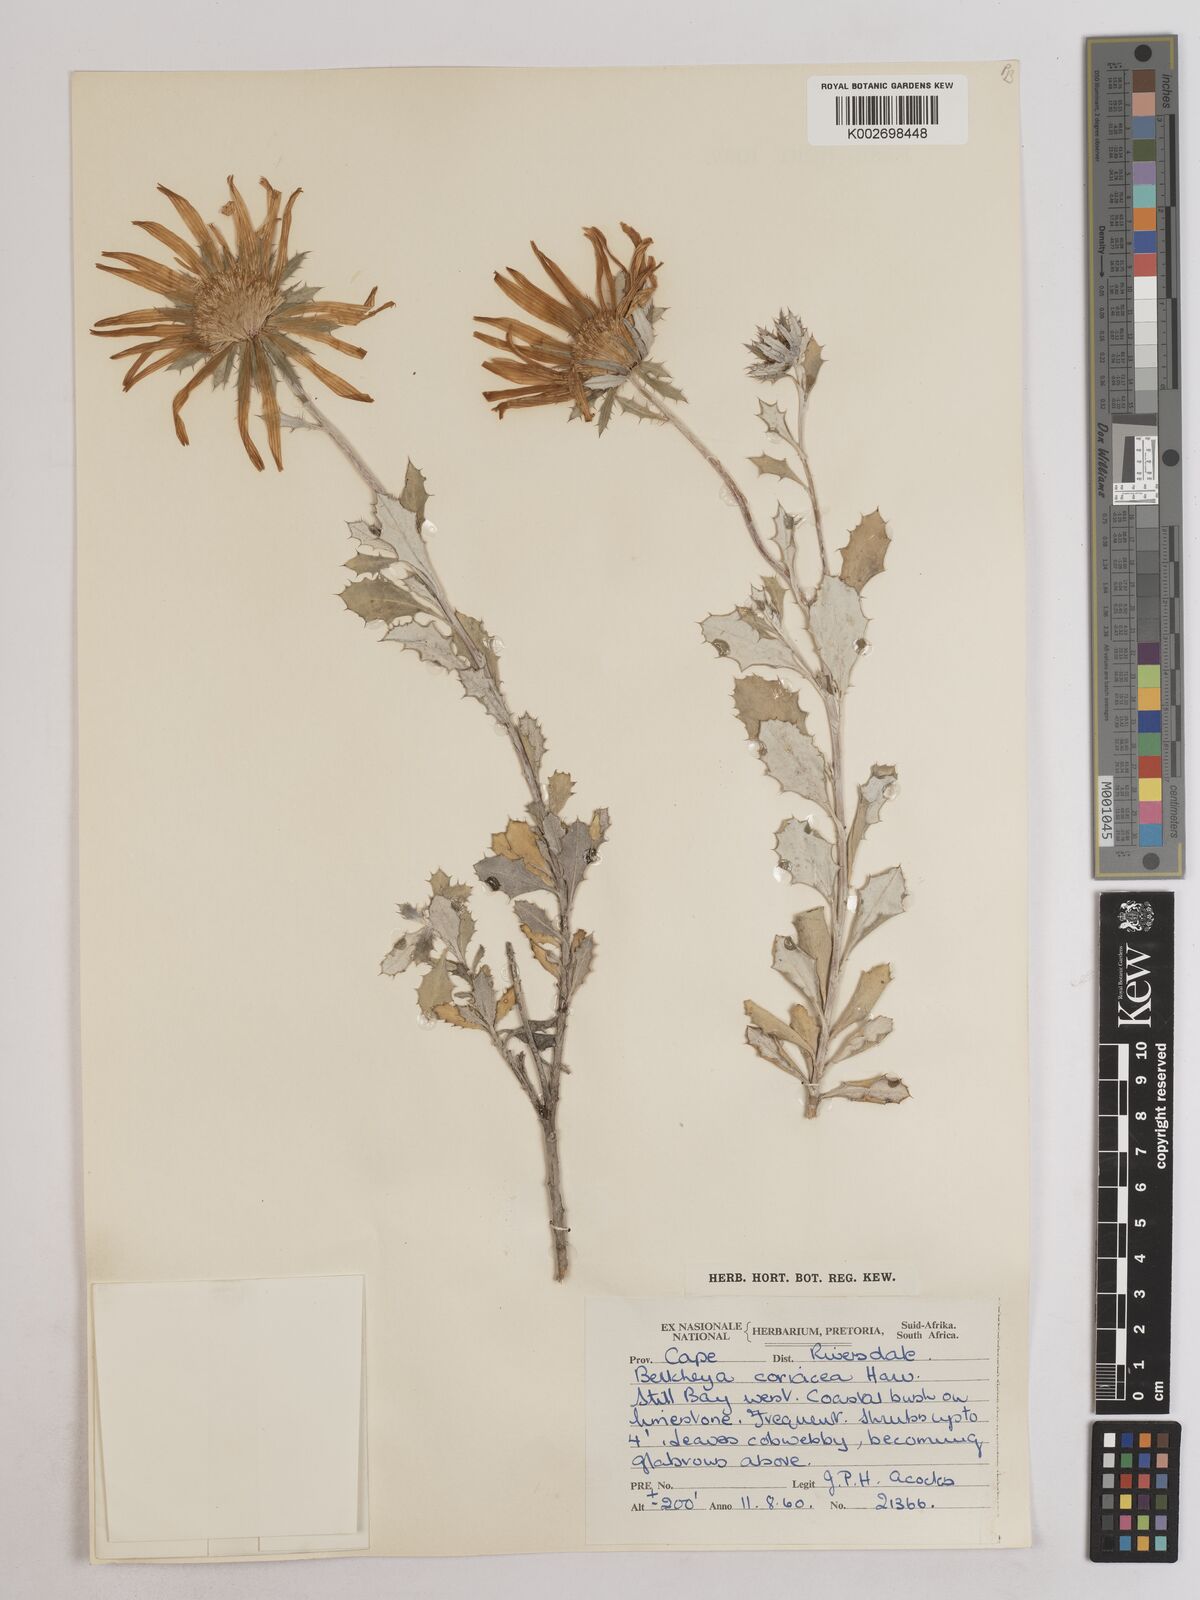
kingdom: Plantae
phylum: Tracheophyta
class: Magnoliopsida
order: Asterales
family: Asteraceae
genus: Berkheya
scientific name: Berkheya coriacea
